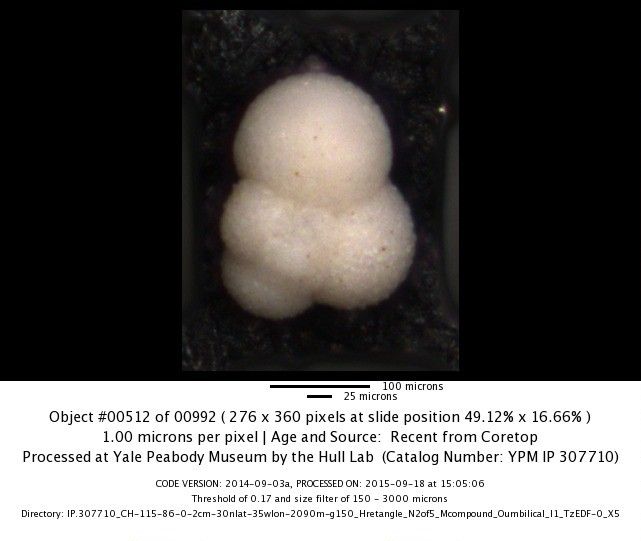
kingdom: Chromista
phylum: Foraminifera
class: Globothalamea
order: Rotaliida
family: Globigerinidae
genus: Globigerina
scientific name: Globigerina bulloides
